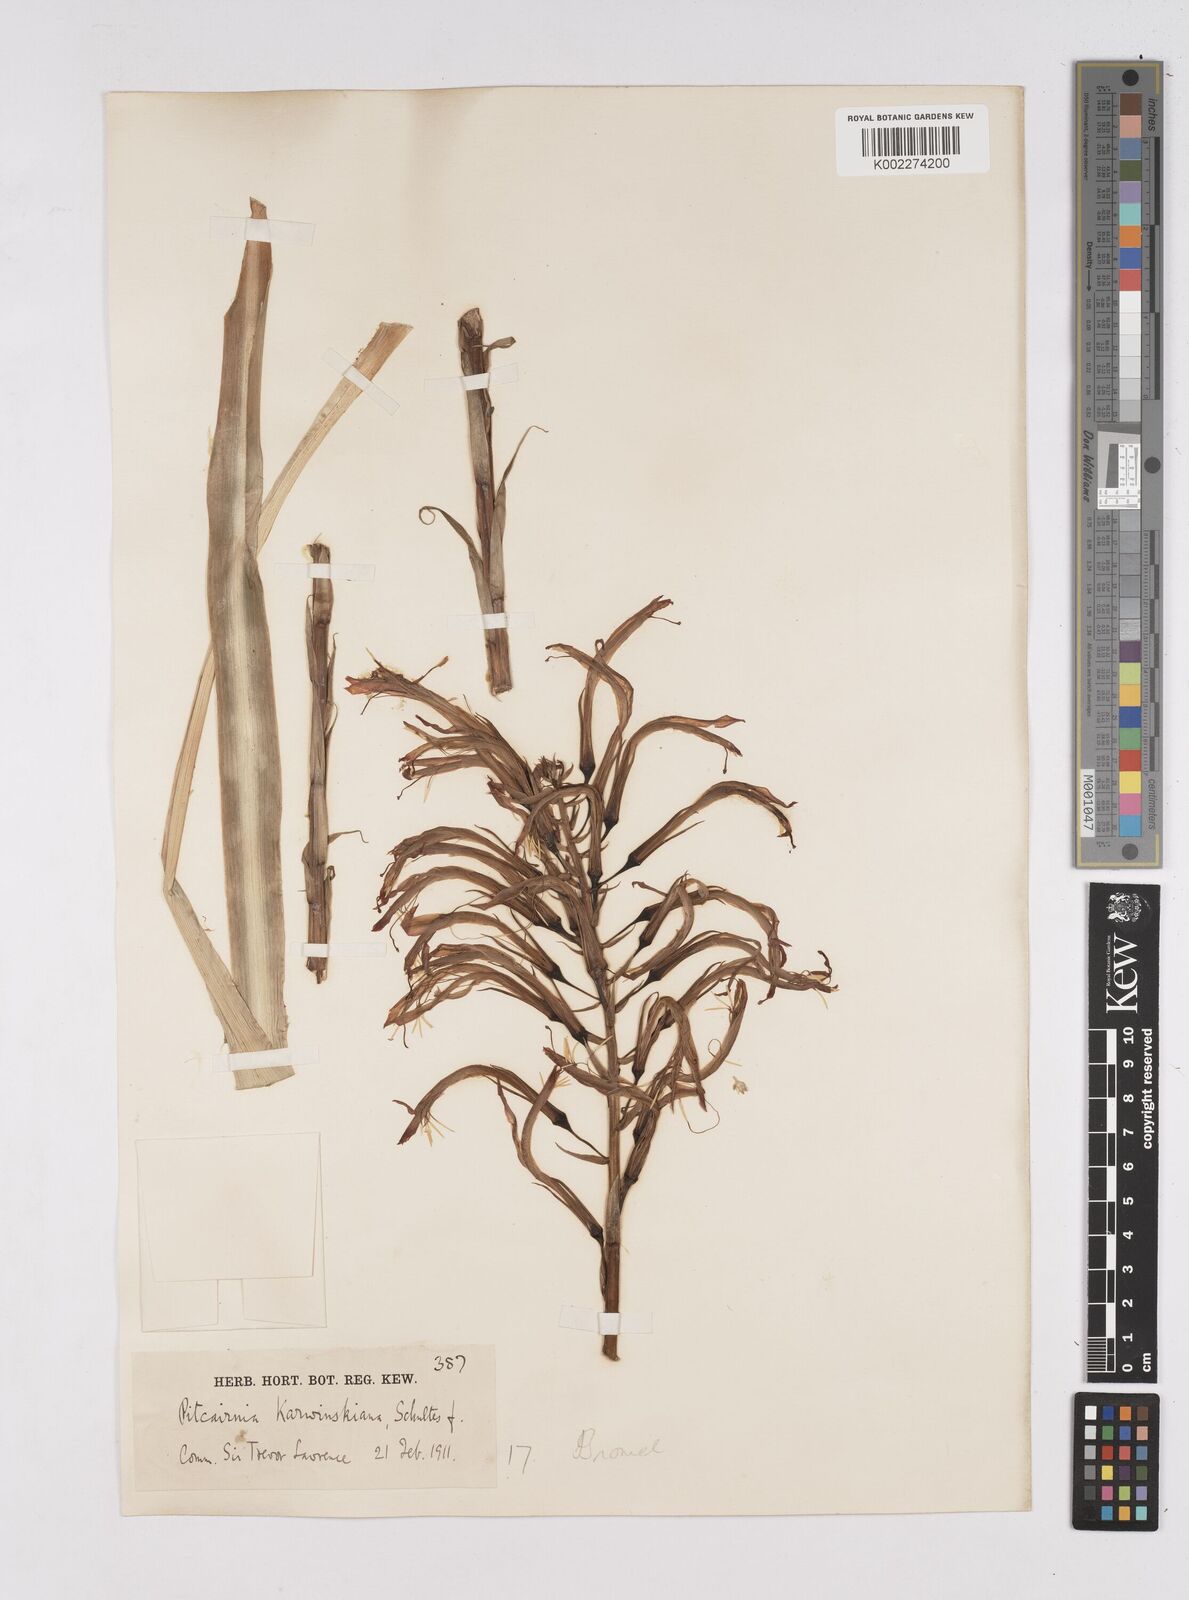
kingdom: Plantae
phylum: Tracheophyta
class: Liliopsida
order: Poales
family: Bromeliaceae
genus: Pitcairnia
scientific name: Pitcairnia ringens
